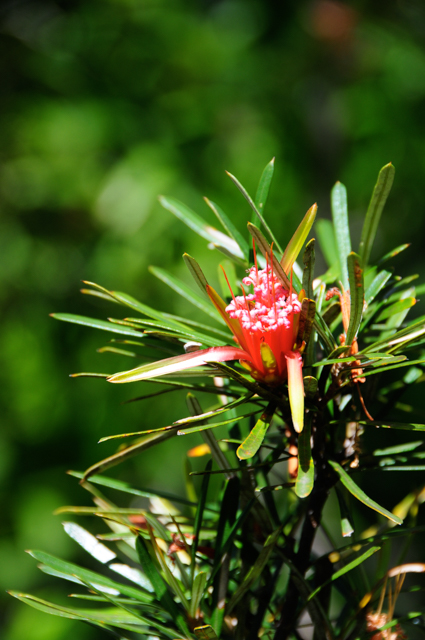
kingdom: Plantae
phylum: Tracheophyta
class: Magnoliopsida
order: Proteales
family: Proteaceae
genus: Lambertia
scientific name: Lambertia formosa
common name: Mountain-devil
